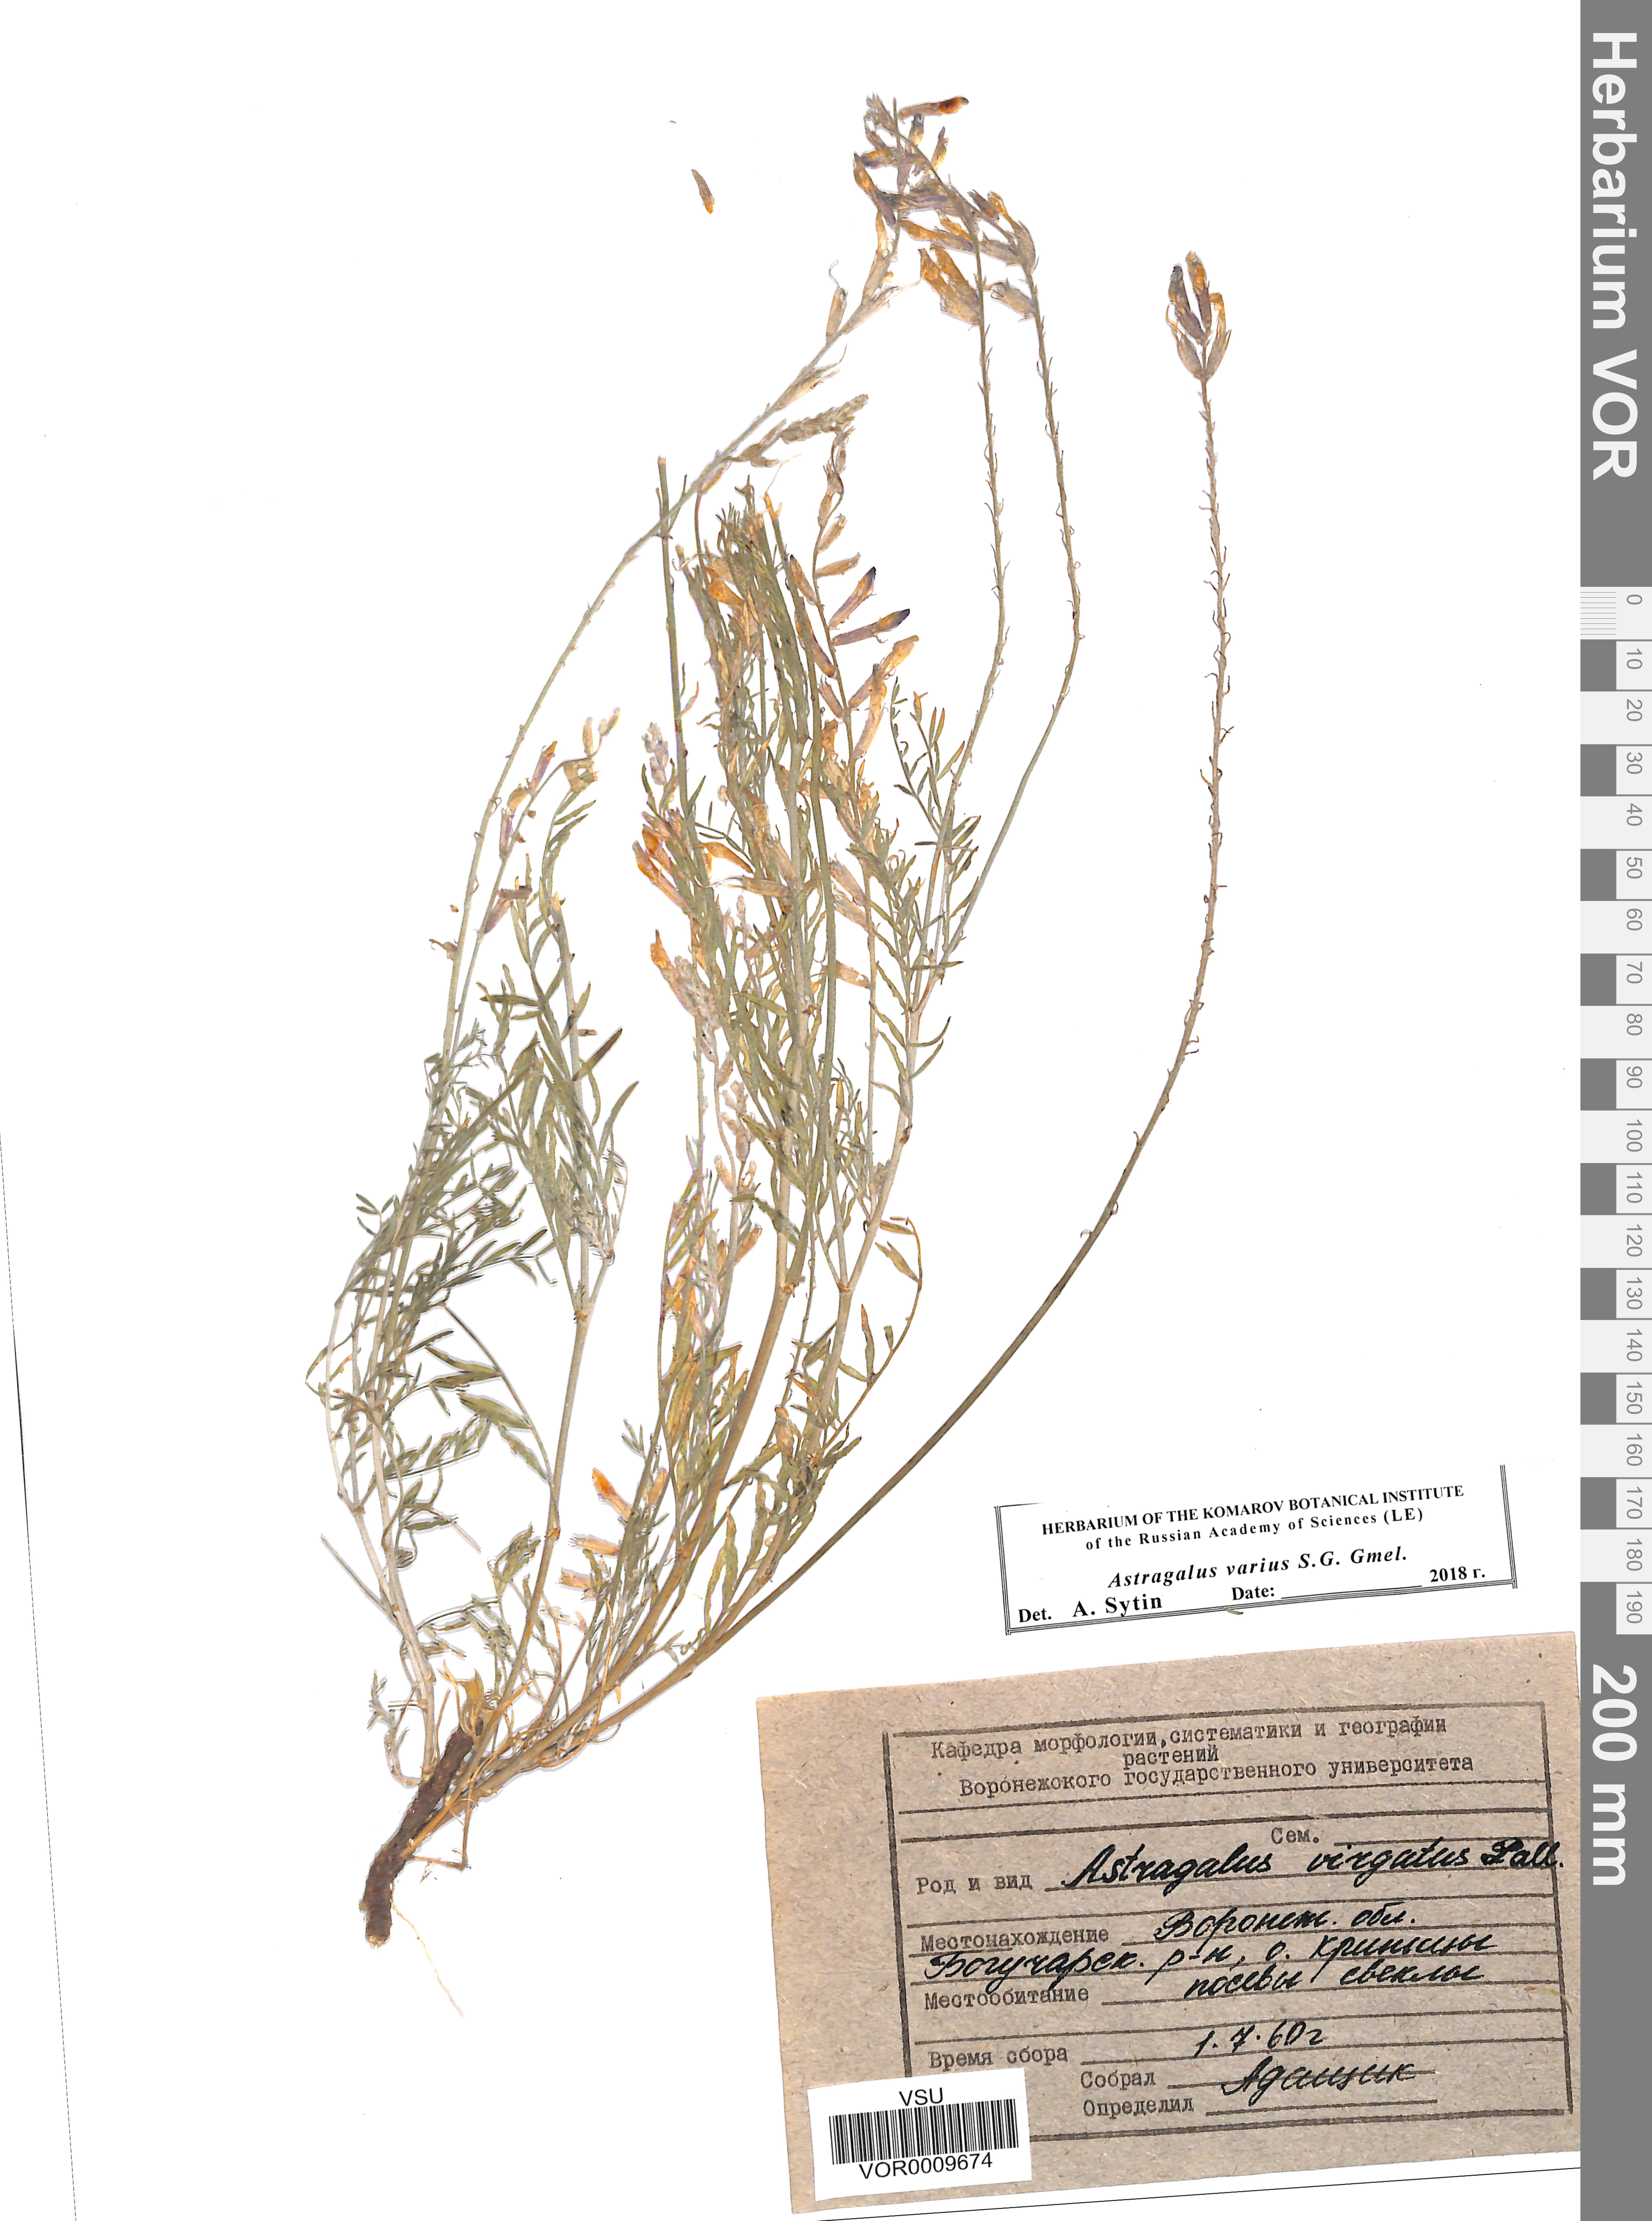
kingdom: Plantae
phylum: Tracheophyta
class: Magnoliopsida
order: Fabales
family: Fabaceae
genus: Astragalus
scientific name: Astragalus varius
